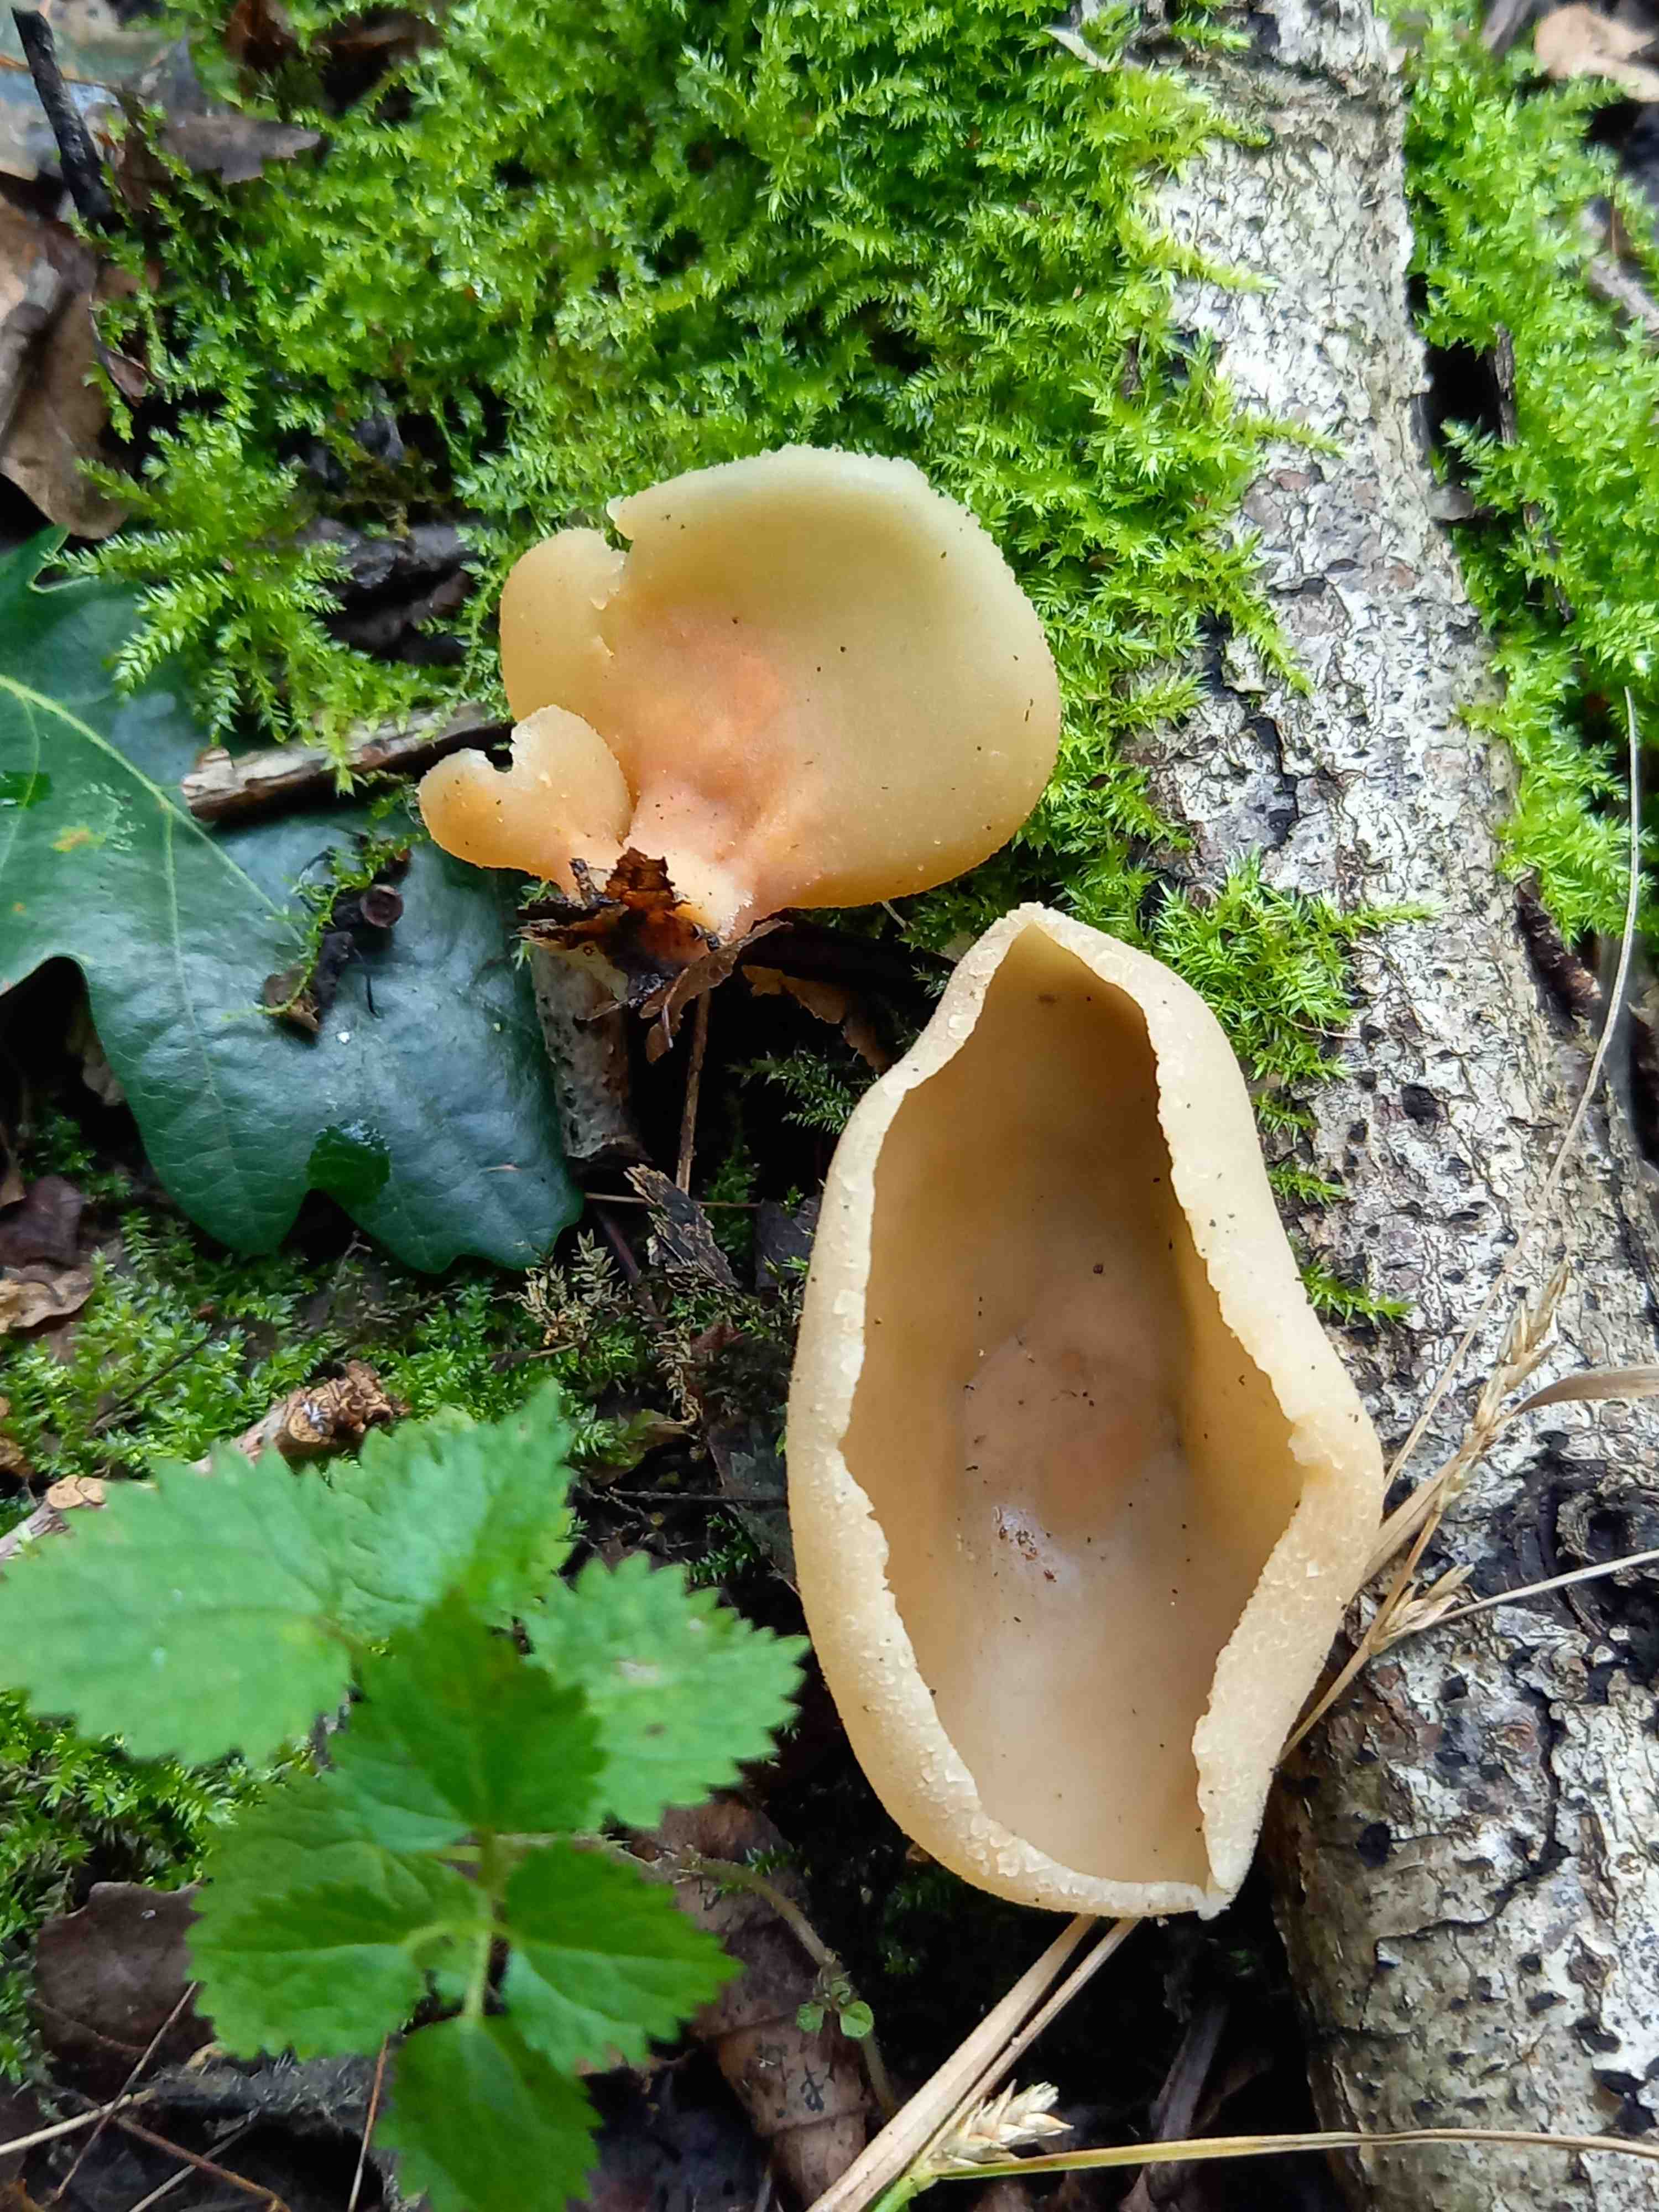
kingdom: Fungi
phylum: Ascomycota
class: Pezizomycetes
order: Pezizales
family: Pezizaceae
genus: Peziza
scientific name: Peziza varia
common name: Ved-bægersvamp
